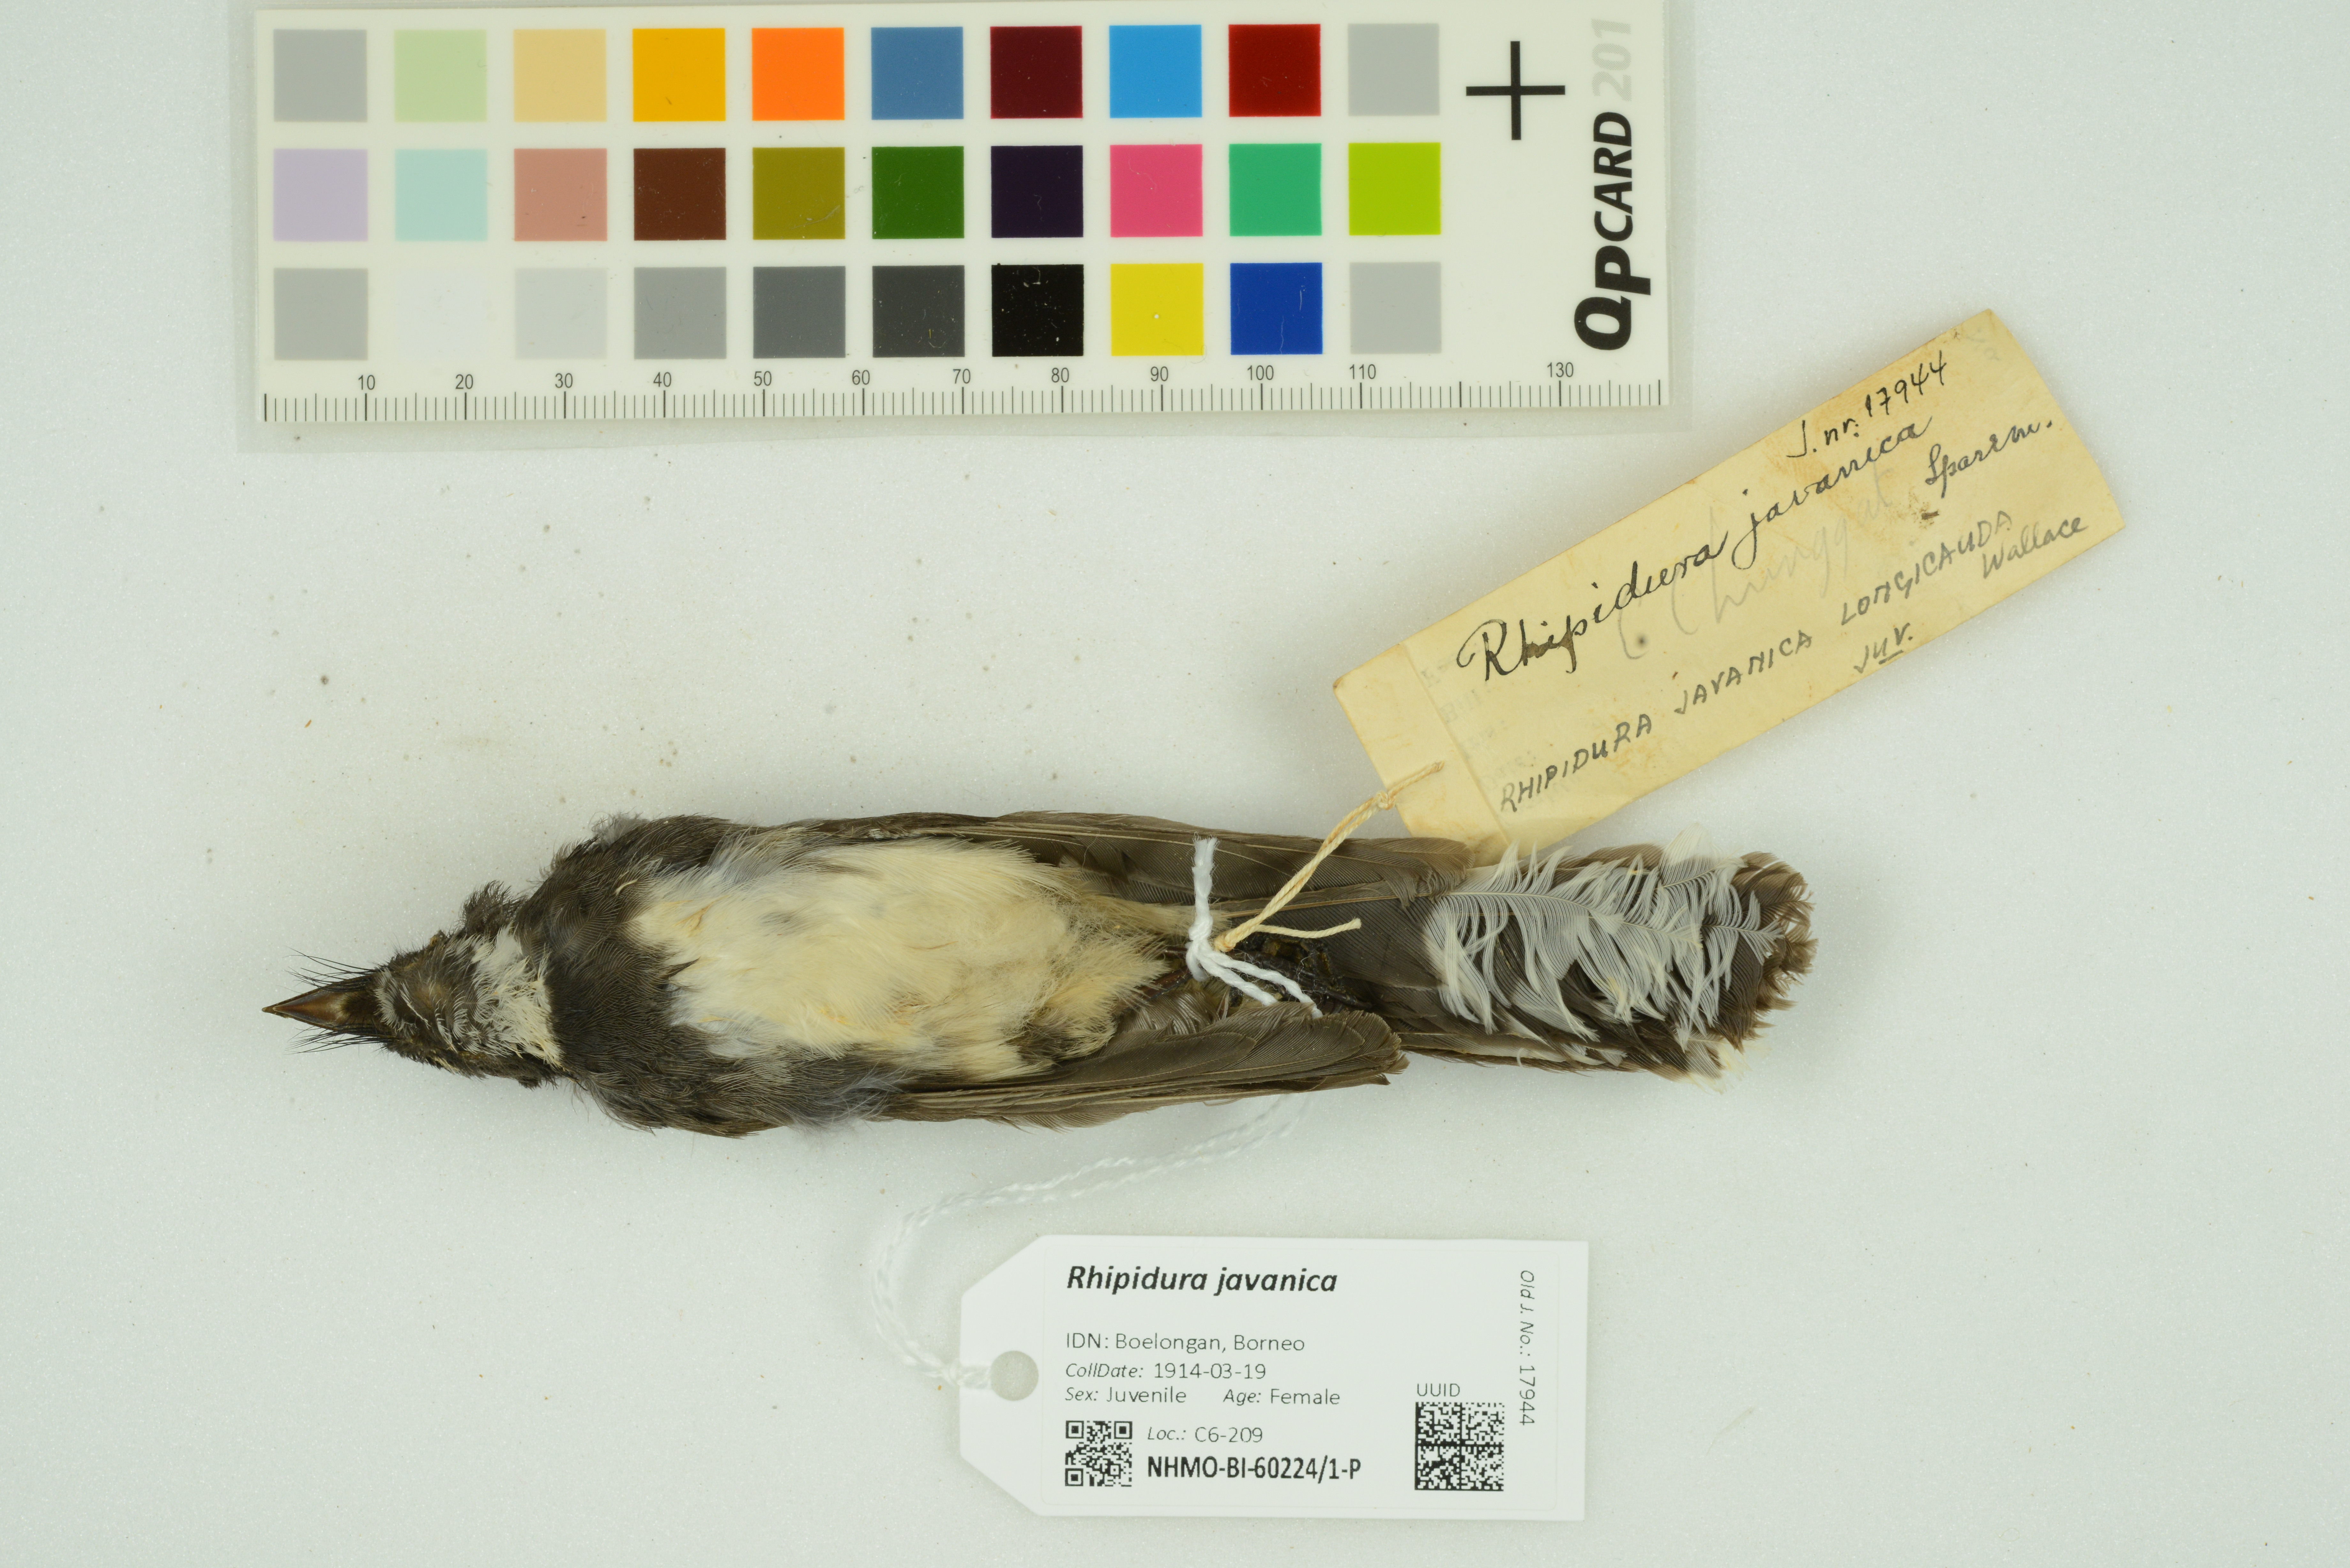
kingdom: Animalia
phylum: Chordata
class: Aves
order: Passeriformes
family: Rhipiduridae
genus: Rhipidura
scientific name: Rhipidura javanica
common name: Pied fantail
